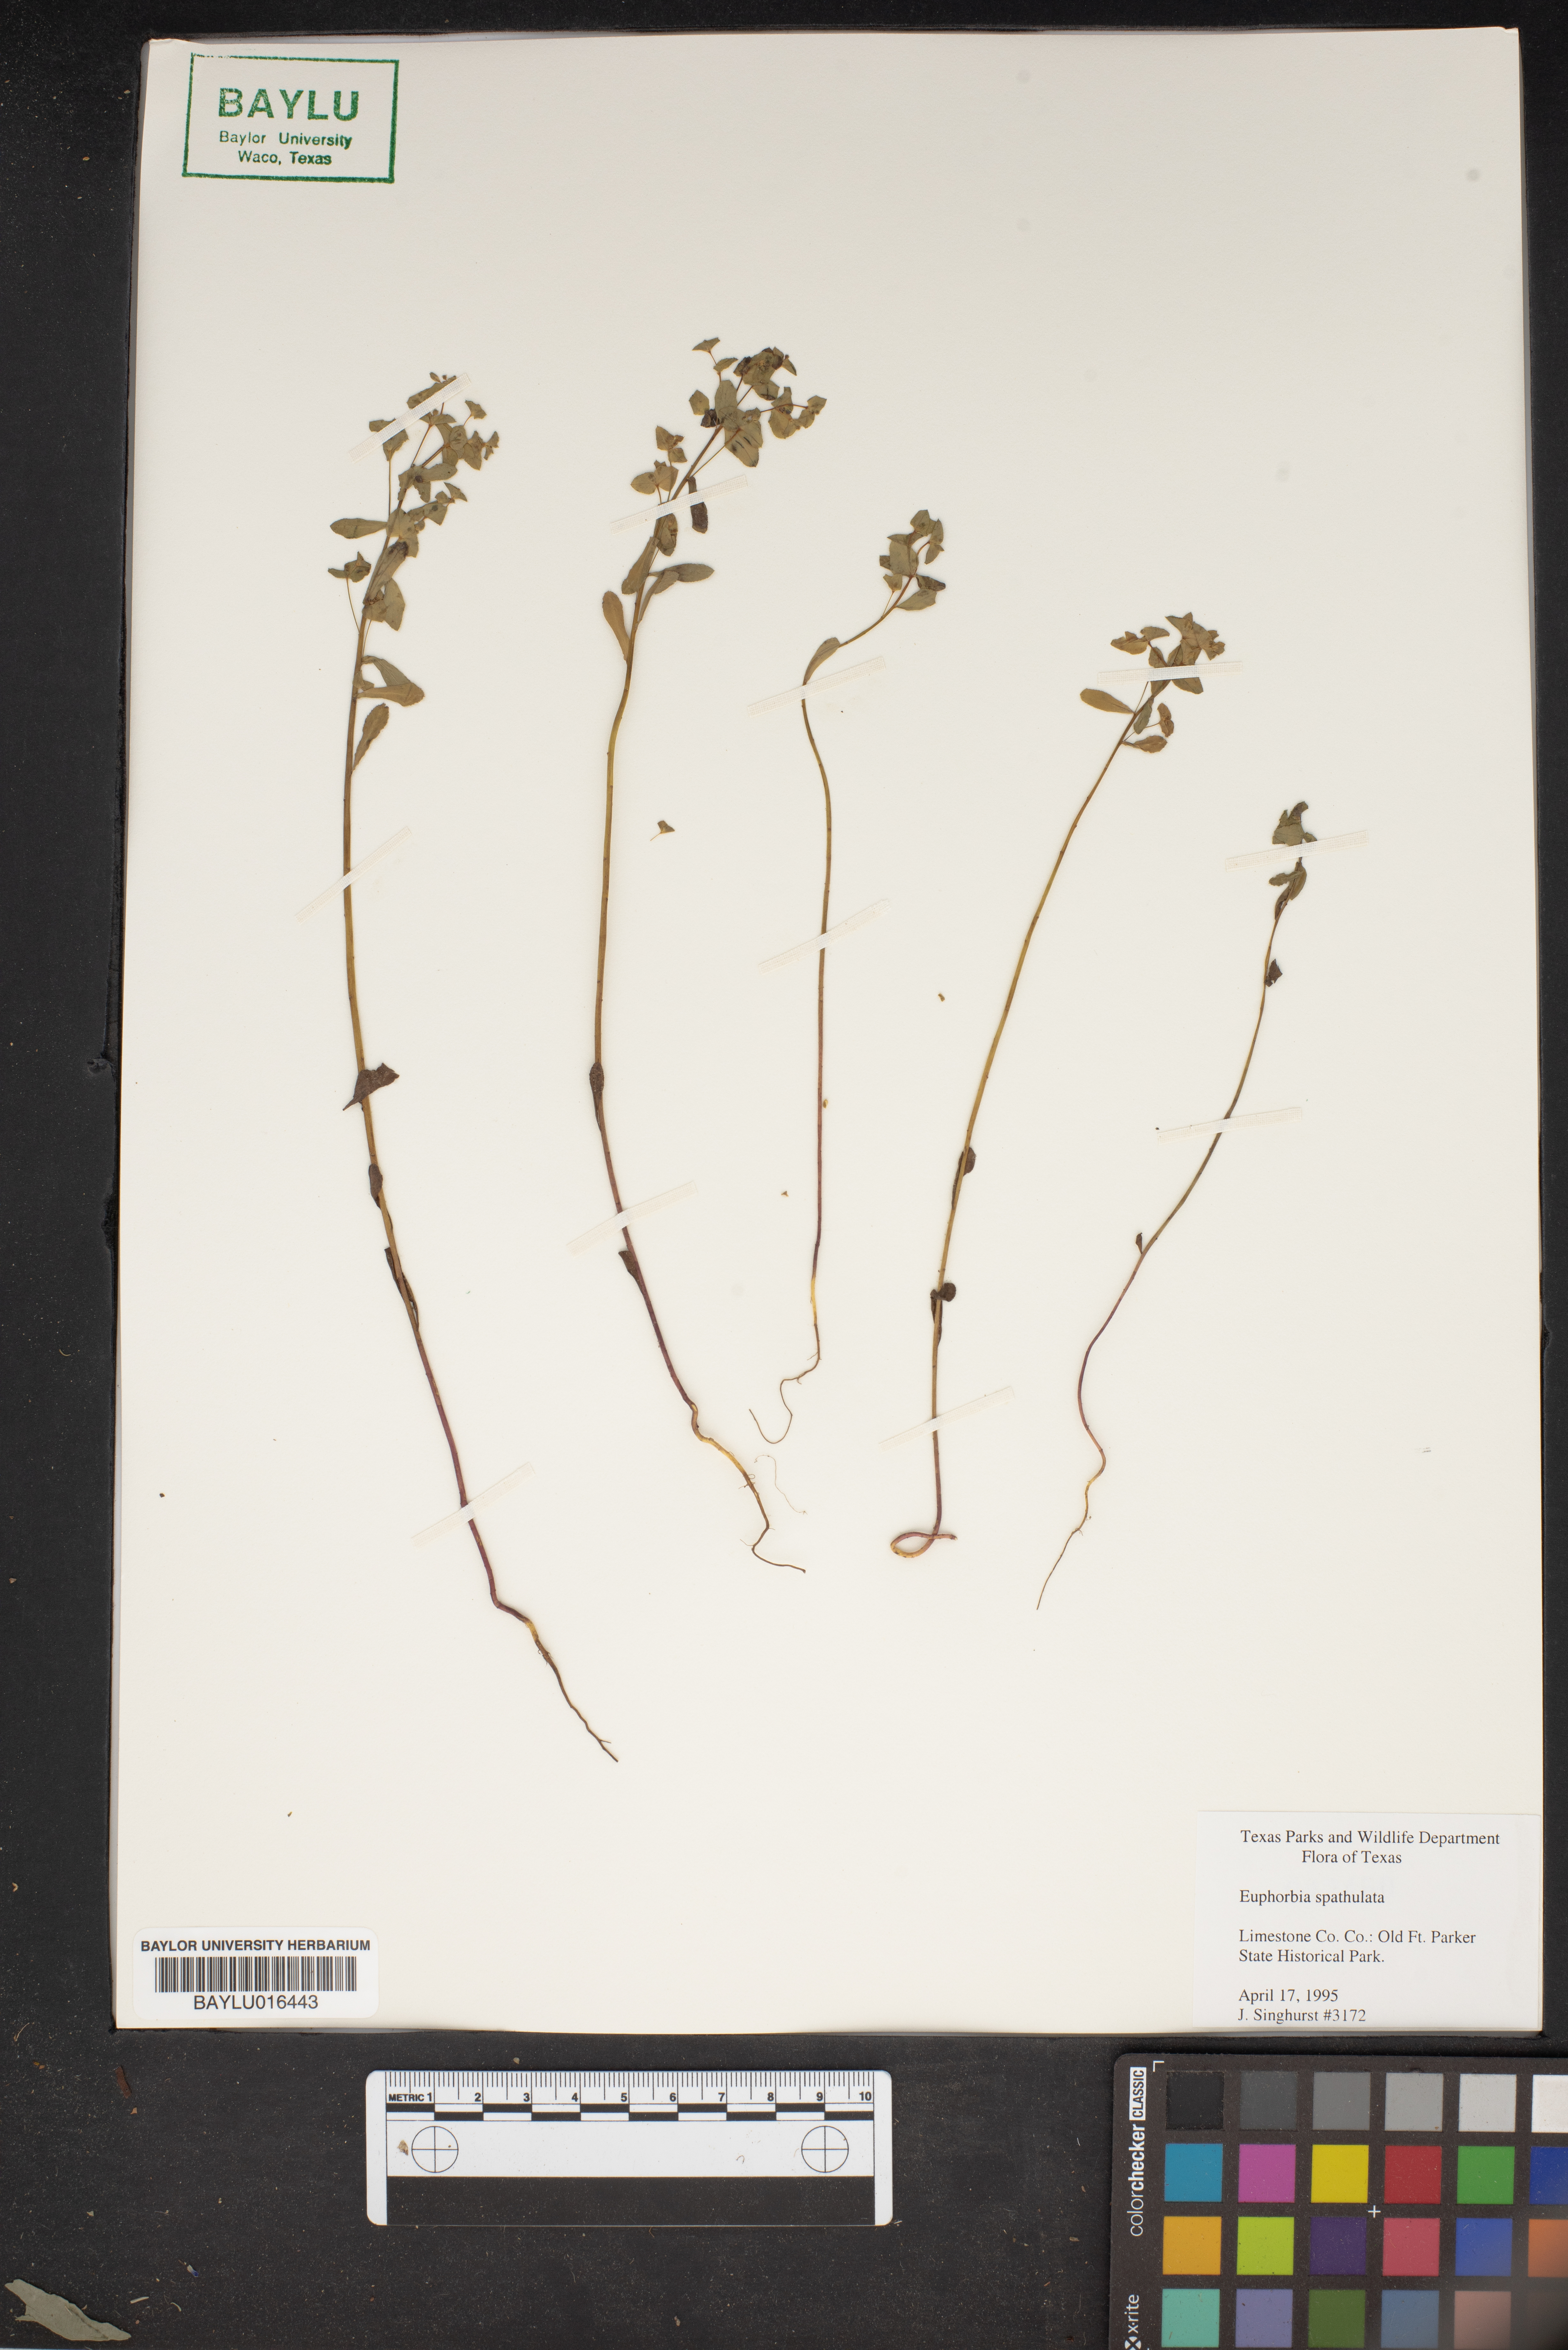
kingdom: Plantae
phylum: Tracheophyta
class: Magnoliopsida
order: Malpighiales
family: Euphorbiaceae
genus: Euphorbia
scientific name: Euphorbia spathulata
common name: Blunt spurge
